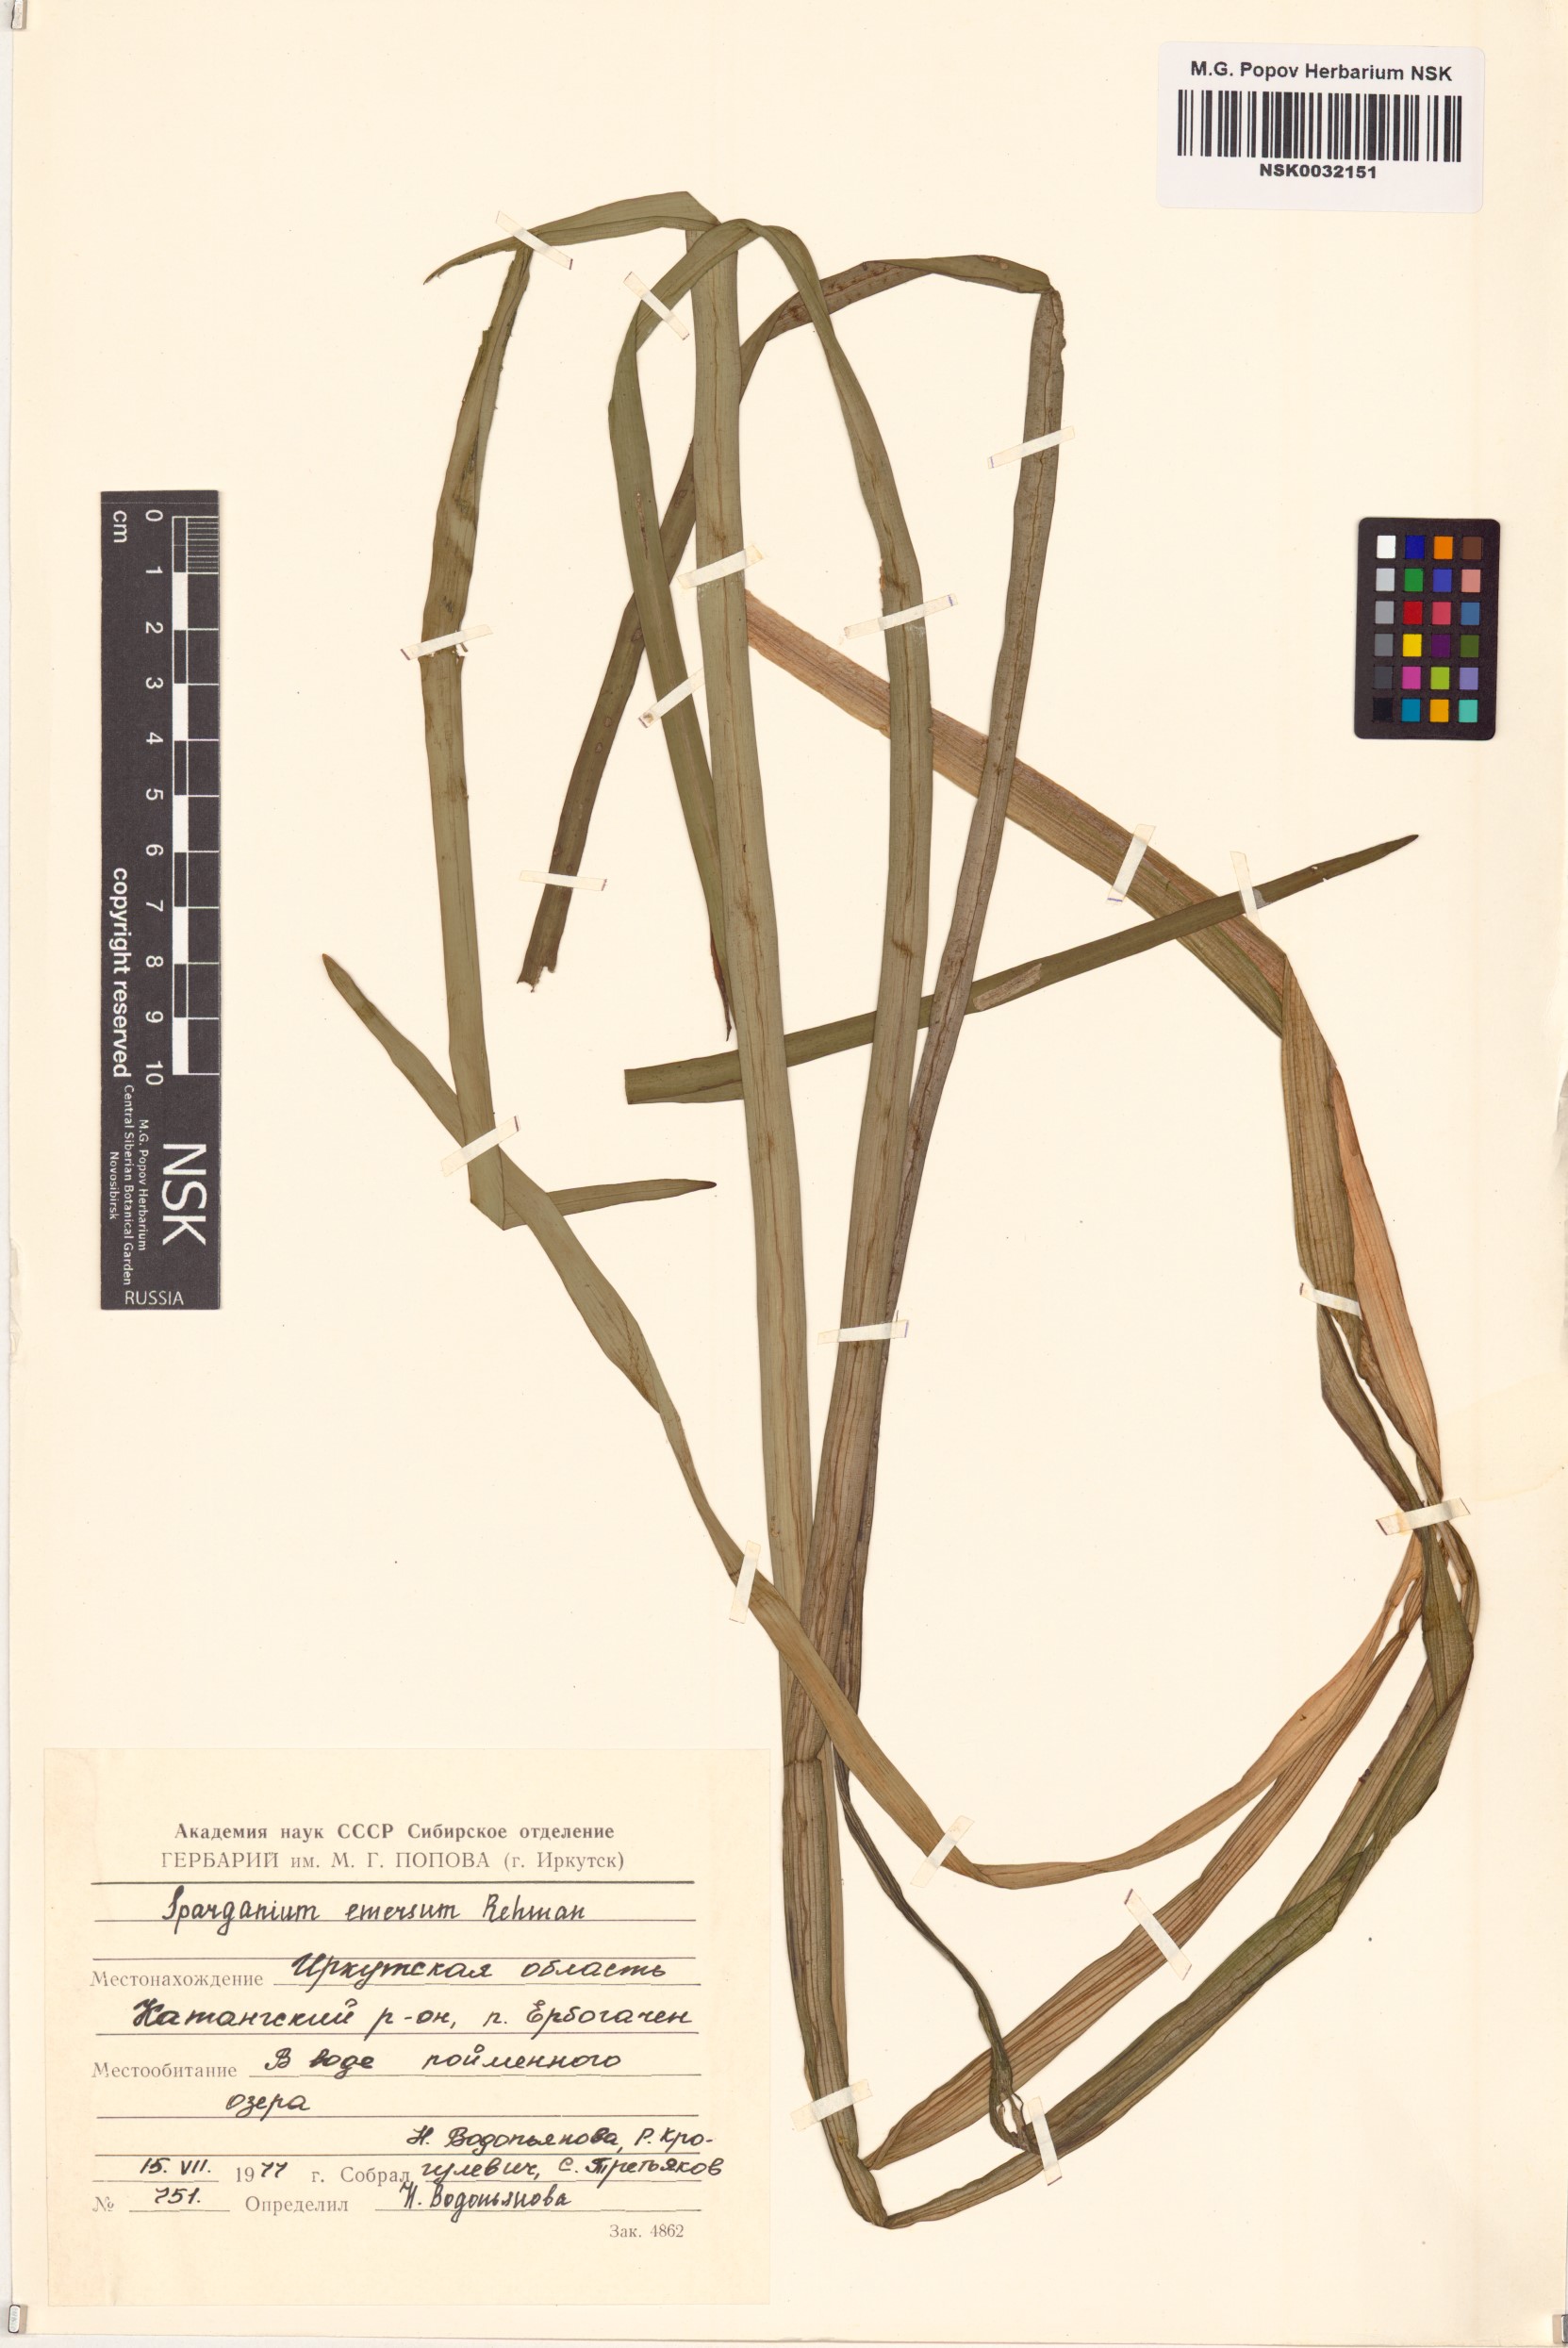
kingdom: Plantae
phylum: Tracheophyta
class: Liliopsida
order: Poales
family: Typhaceae
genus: Sparganium
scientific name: Sparganium emersum
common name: Unbranched bur-reed
